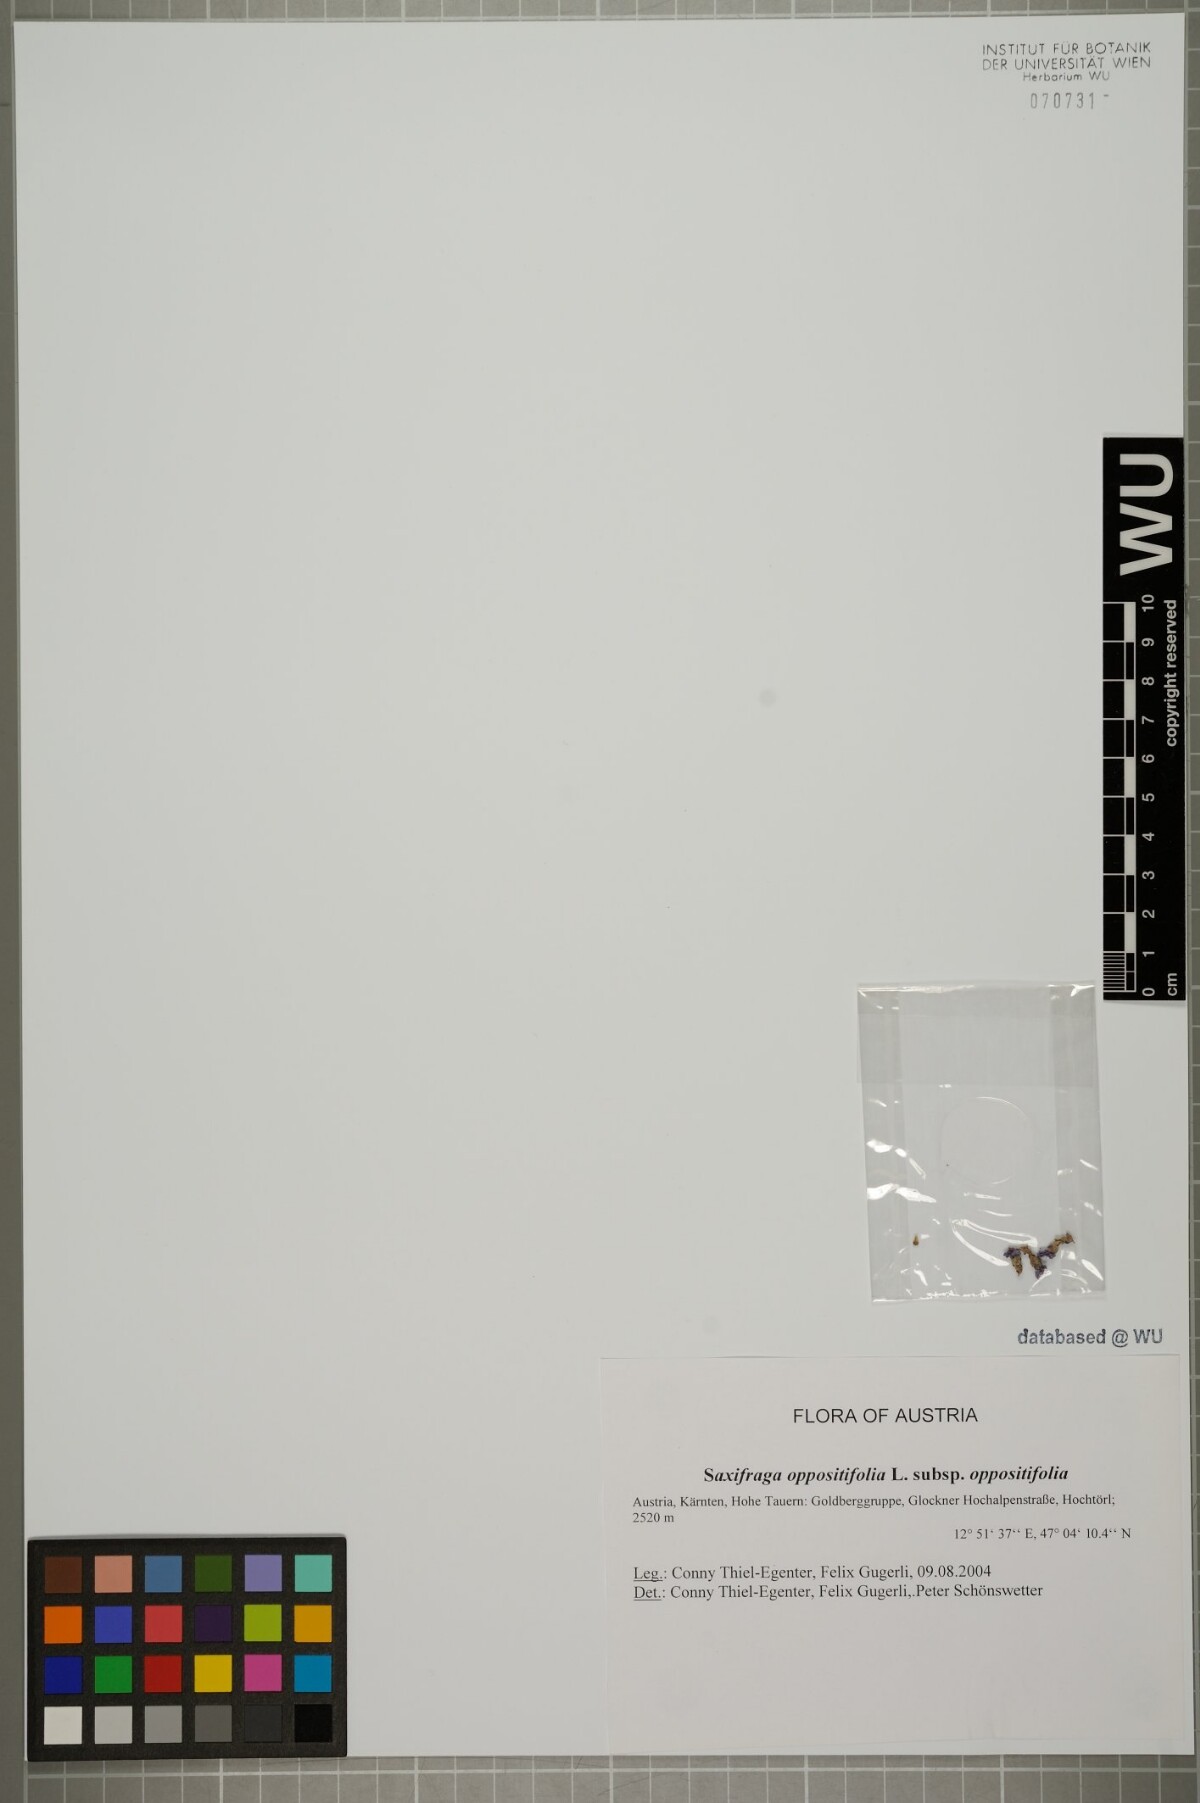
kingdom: Plantae
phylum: Tracheophyta
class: Magnoliopsida
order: Saxifragales
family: Saxifragaceae
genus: Saxifraga
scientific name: Saxifraga oppositifolia
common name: Purple saxifrage
